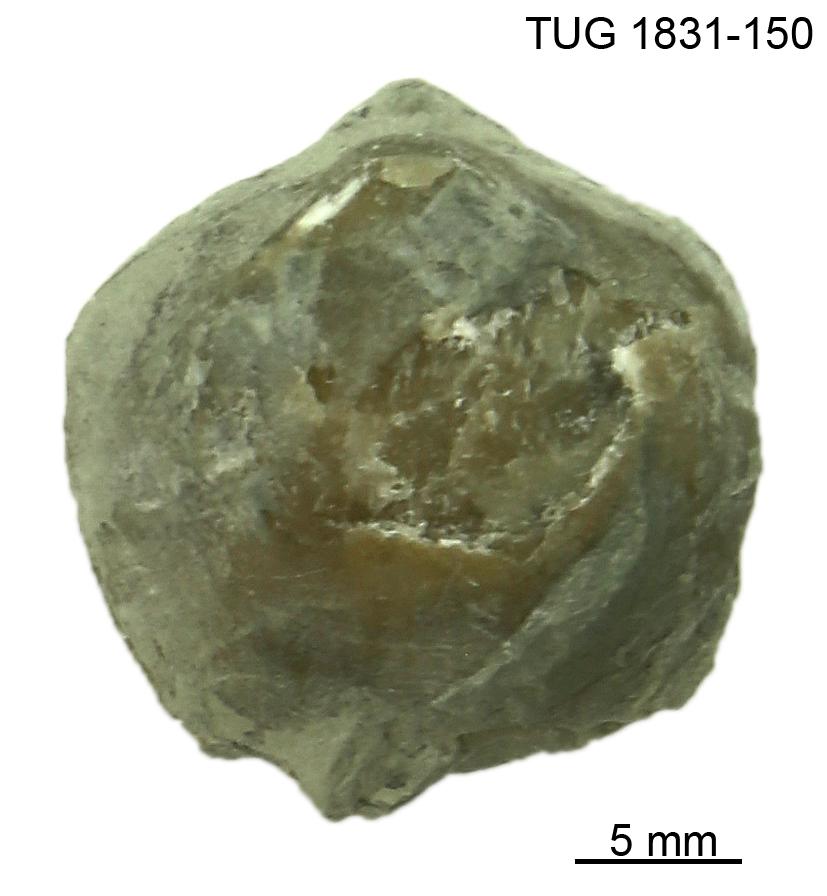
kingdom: Animalia
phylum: Brachiopoda
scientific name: Brachiopoda
